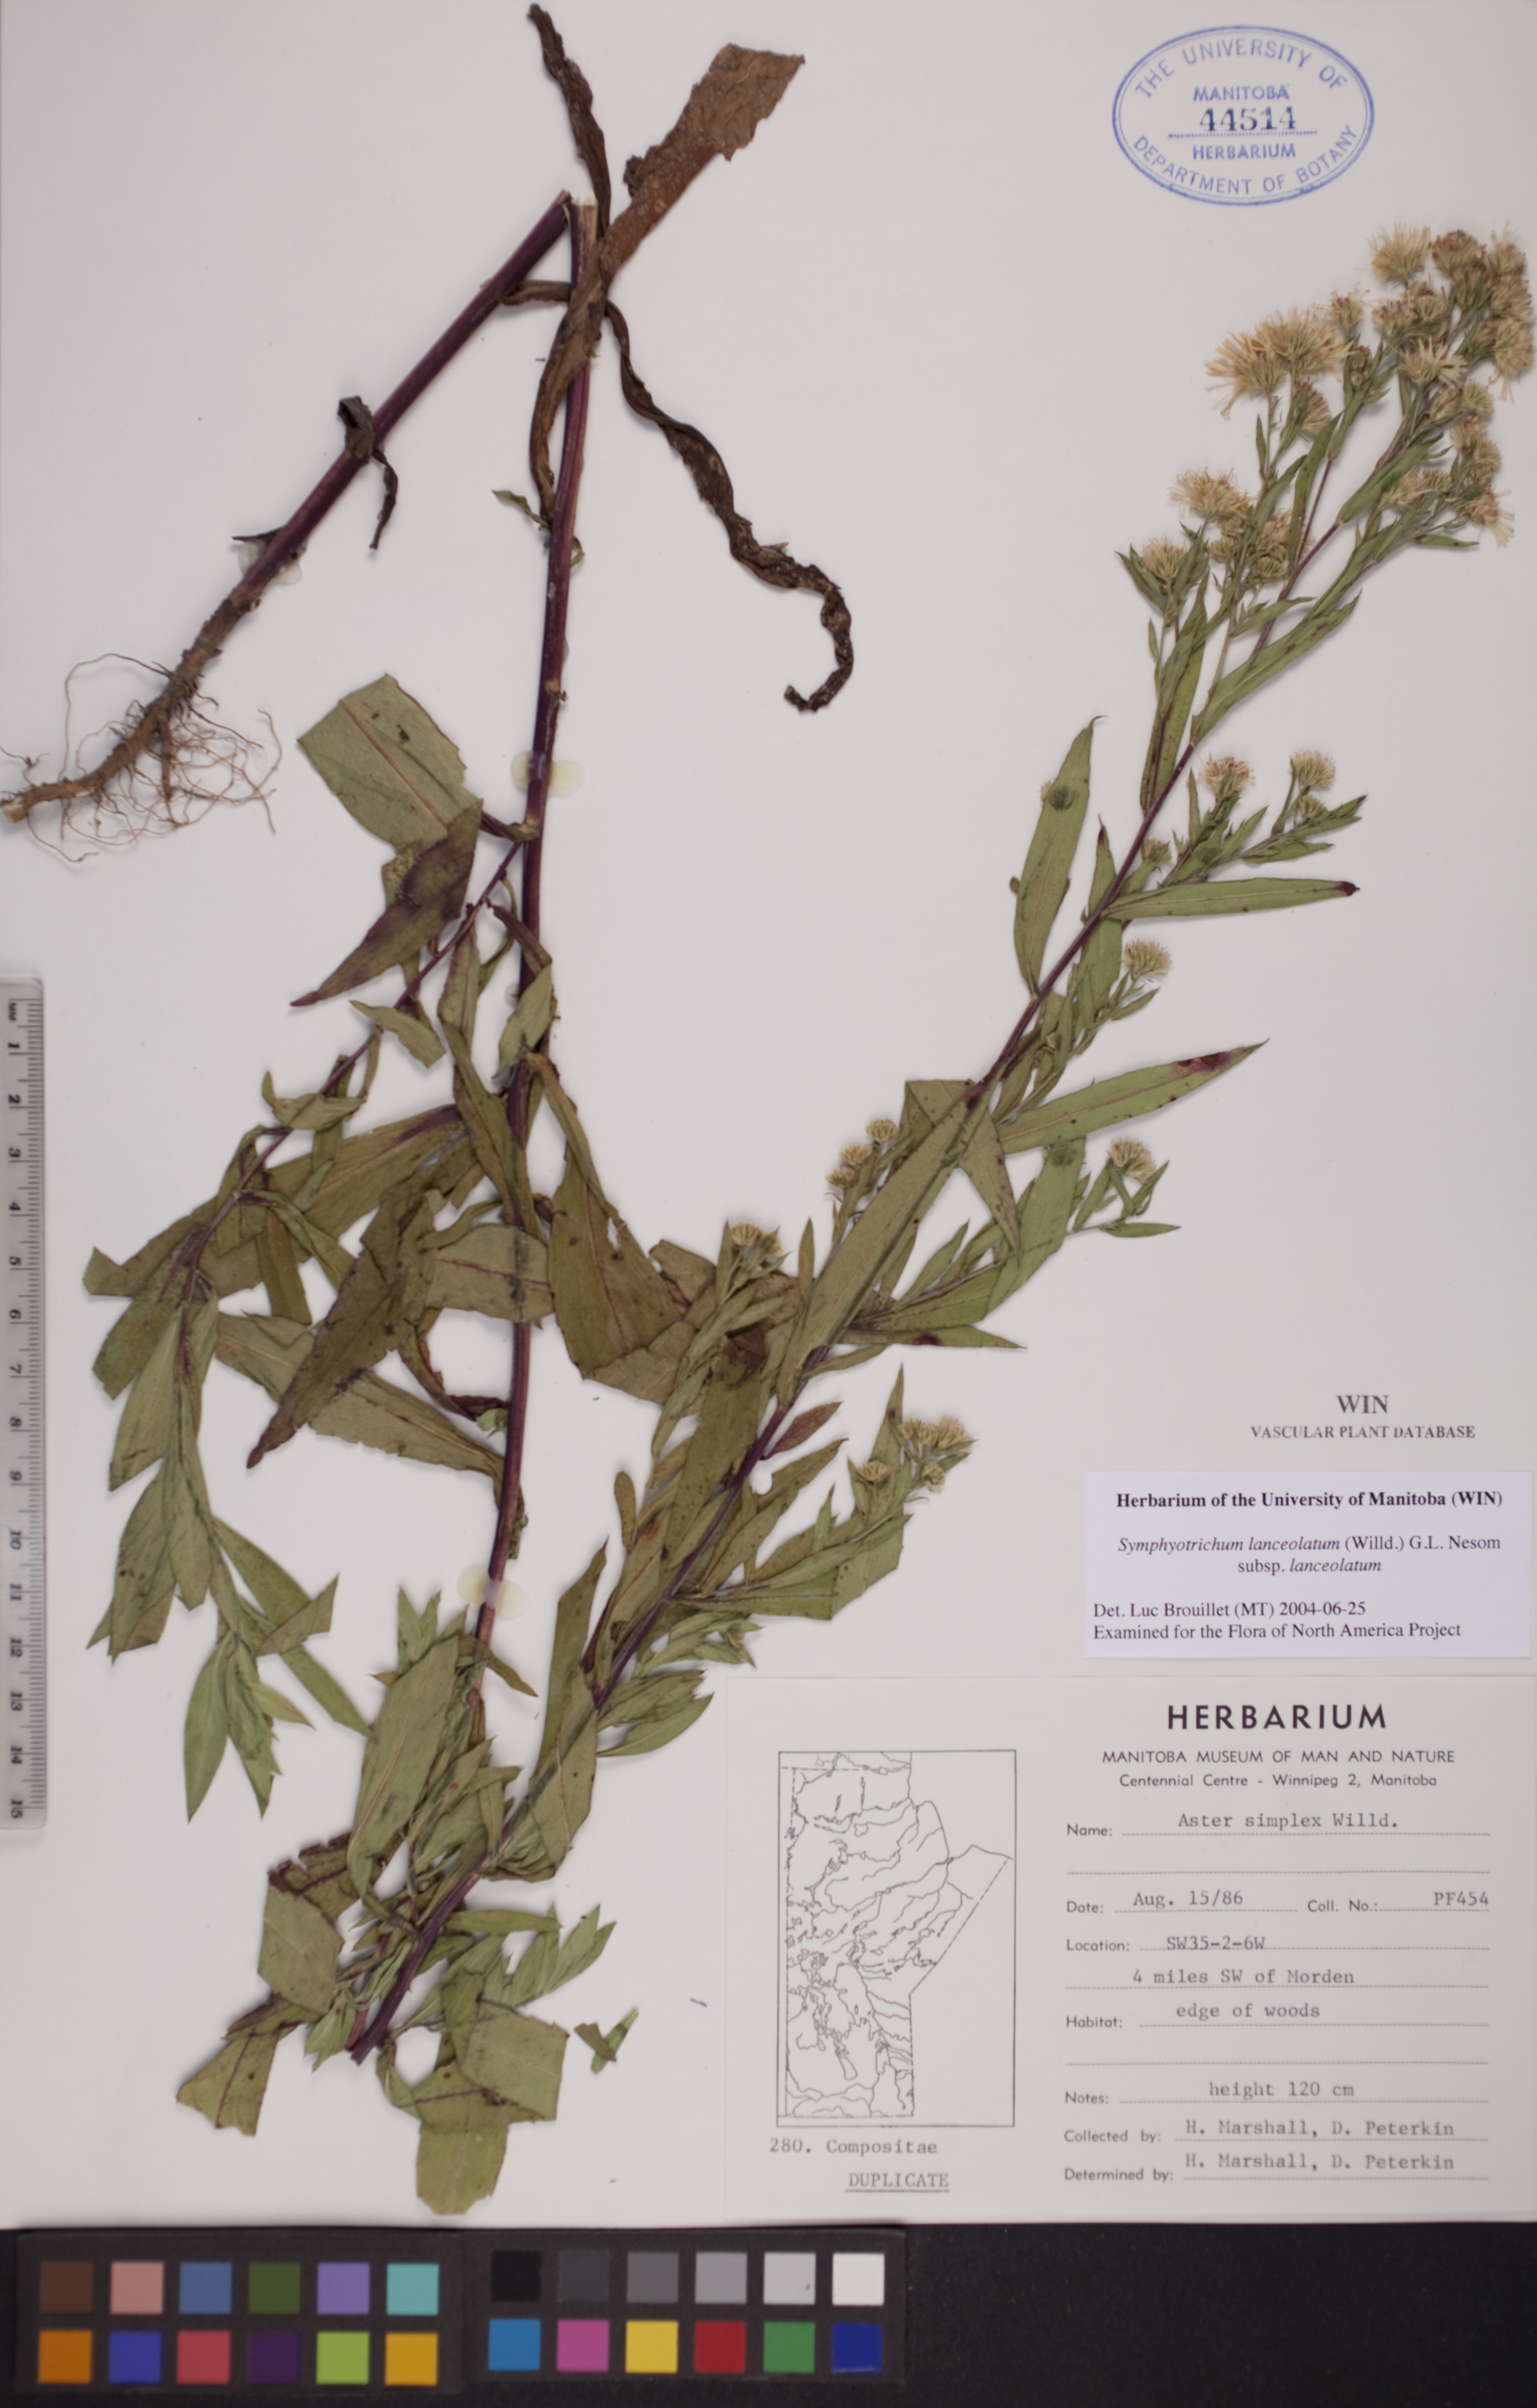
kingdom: Plantae
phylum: Tracheophyta
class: Magnoliopsida
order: Asterales
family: Asteraceae
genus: Symphyotrichum
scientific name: Symphyotrichum lanceolatum
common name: Panicled aster
